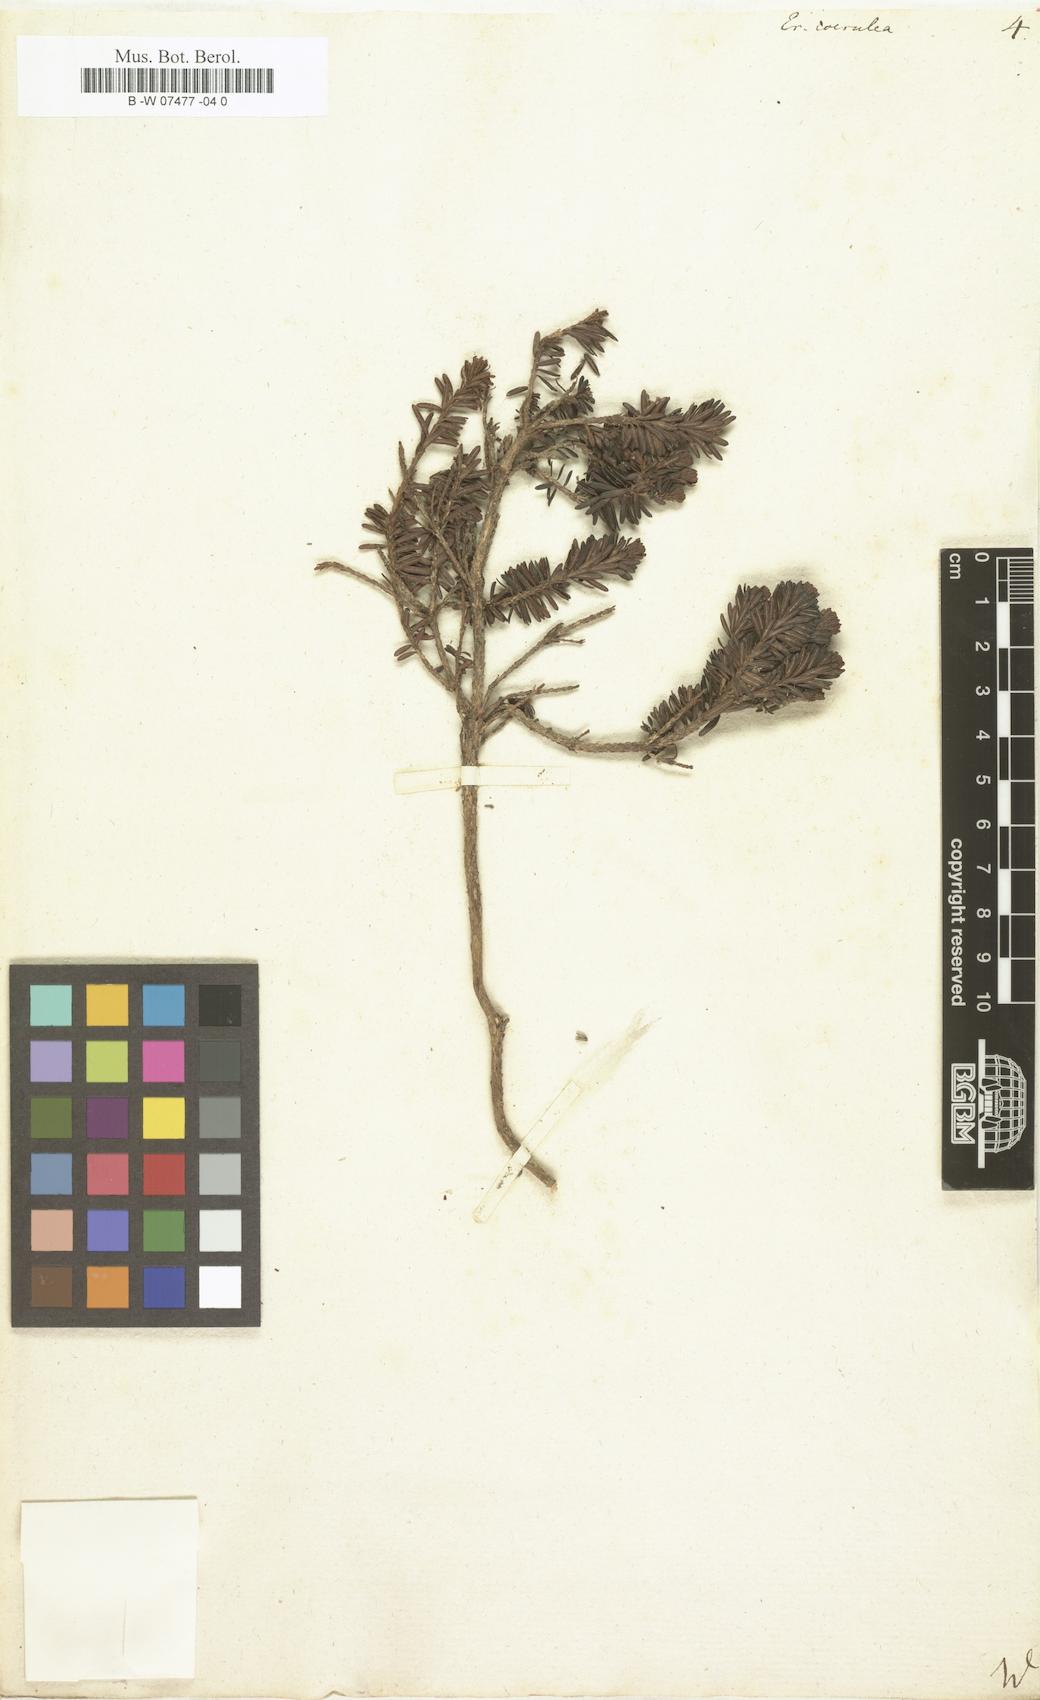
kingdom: Plantae
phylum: Tracheophyta
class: Magnoliopsida
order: Ericales
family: Ericaceae
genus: Phyllodoce
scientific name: Phyllodoce caerulea
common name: Blue heath
